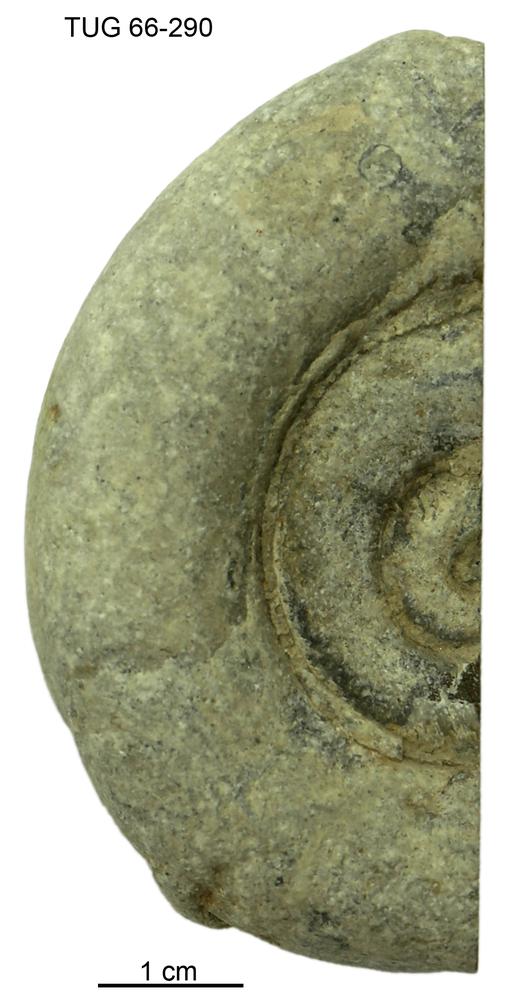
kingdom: Animalia
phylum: Mollusca
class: Cephalopoda
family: Trocholitidae
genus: Discoceras
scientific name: Discoceras
